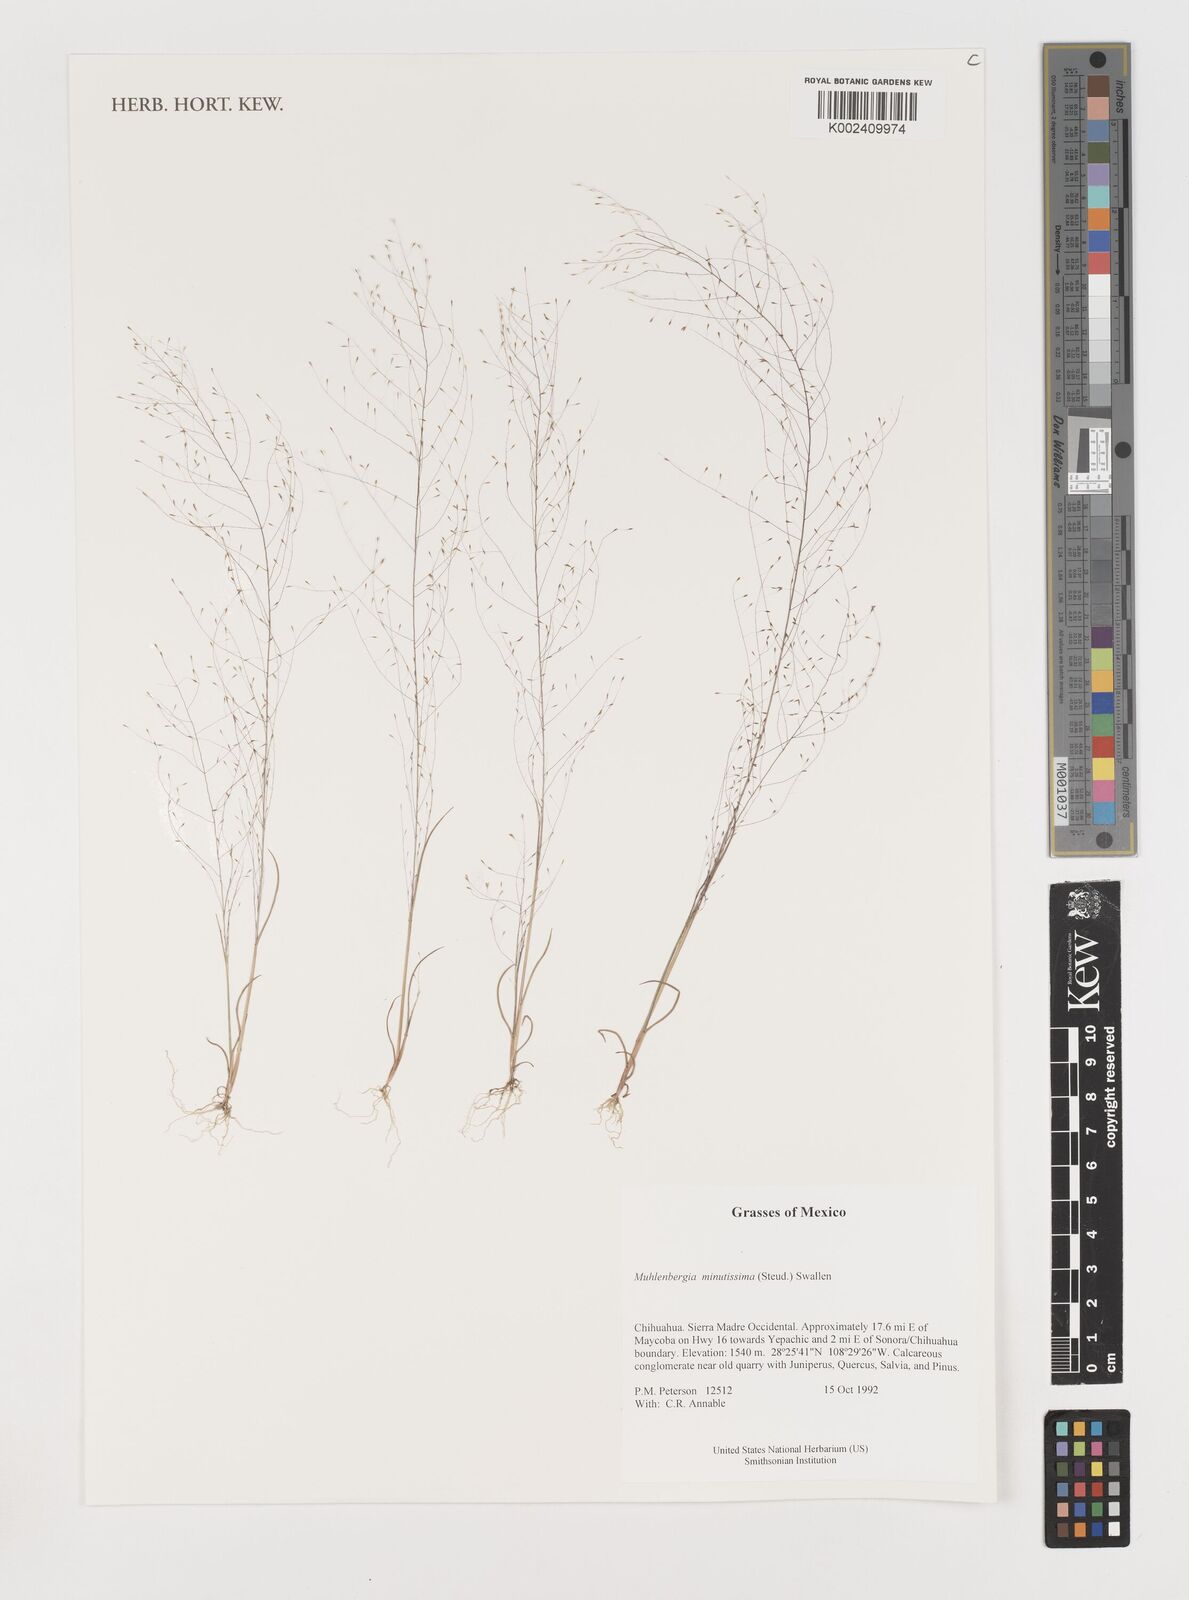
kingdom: Plantae
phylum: Tracheophyta
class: Liliopsida
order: Poales
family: Poaceae
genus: Muhlenbergia
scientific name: Muhlenbergia minutissima
